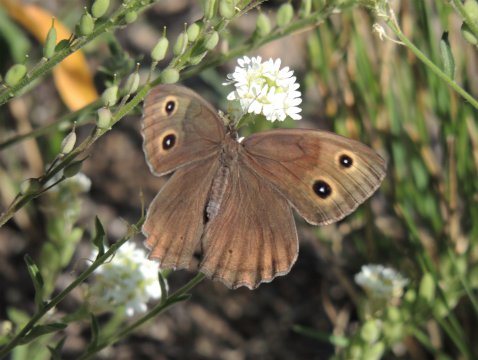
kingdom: Animalia
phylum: Arthropoda
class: Insecta
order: Lepidoptera
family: Nymphalidae
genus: Cercyonis
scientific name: Cercyonis pegala
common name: Common Wood-Nymph
